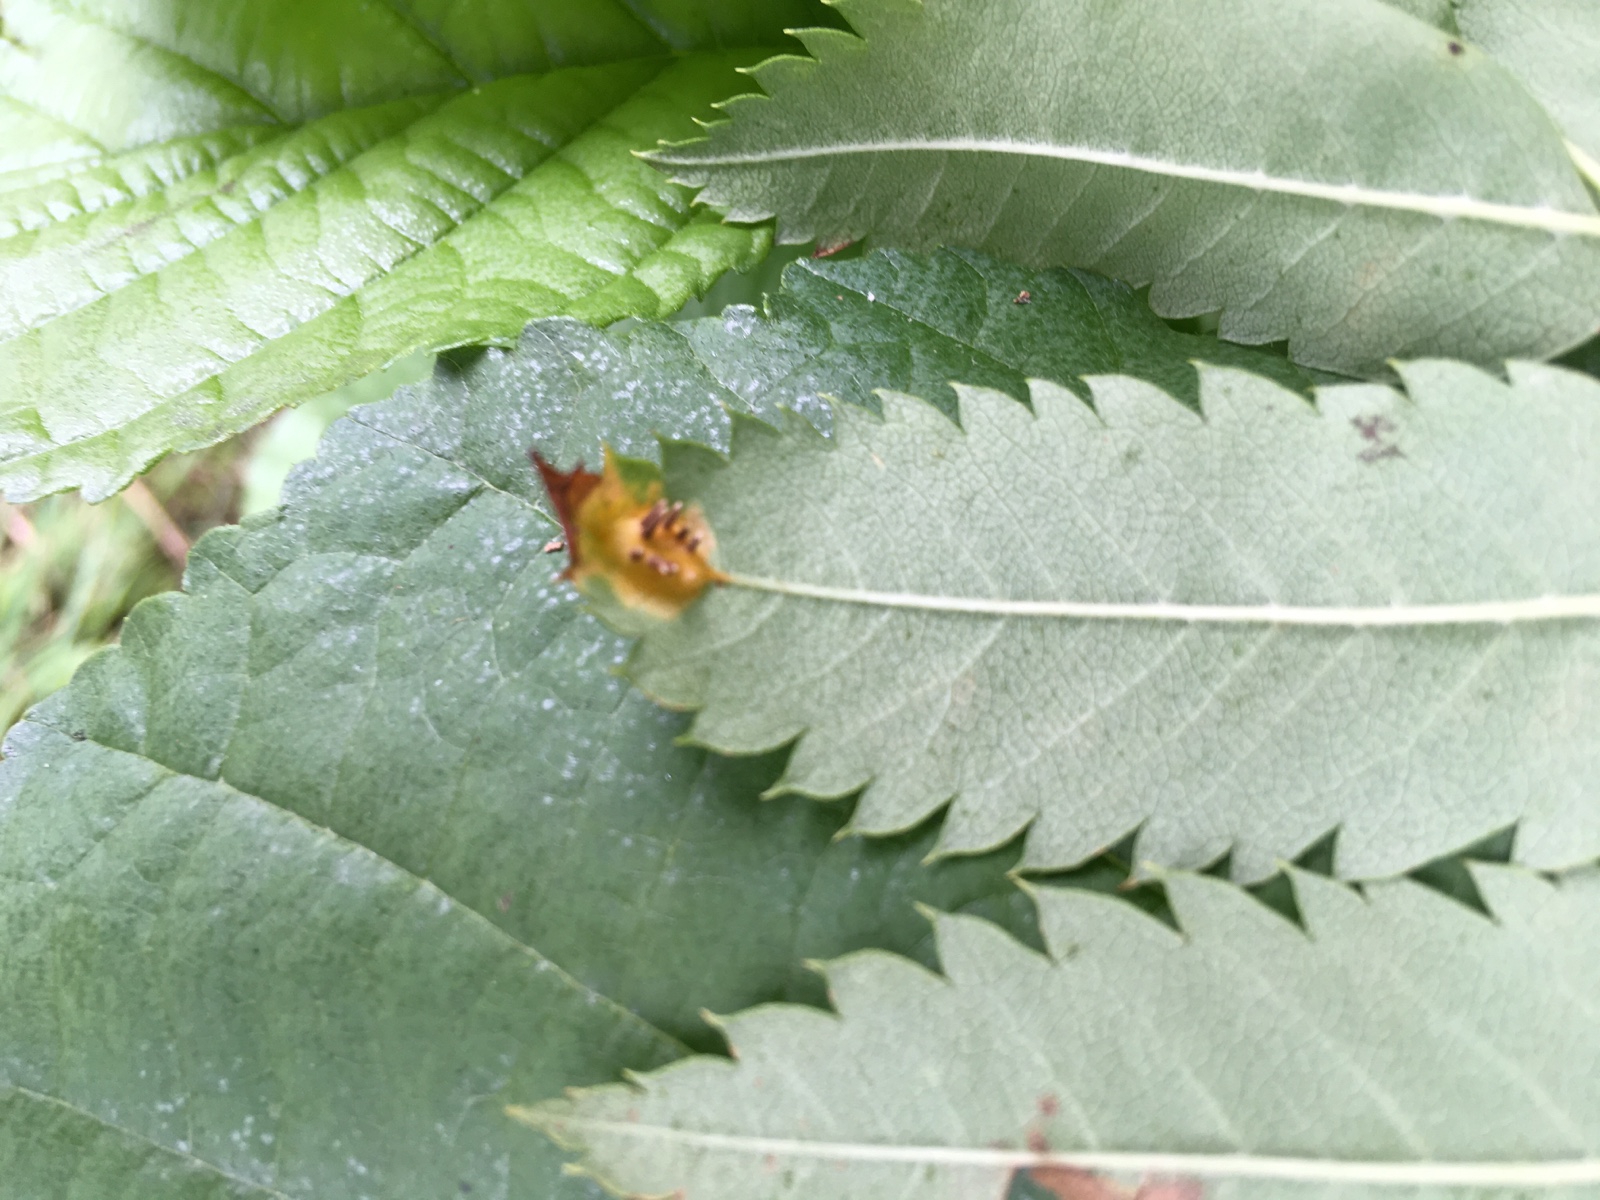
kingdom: Fungi
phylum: Basidiomycota
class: Pucciniomycetes
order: Pucciniales
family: Gymnosporangiaceae
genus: Gymnosporangium
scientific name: Gymnosporangium cornutum
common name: rønnehorn-bævrerust
